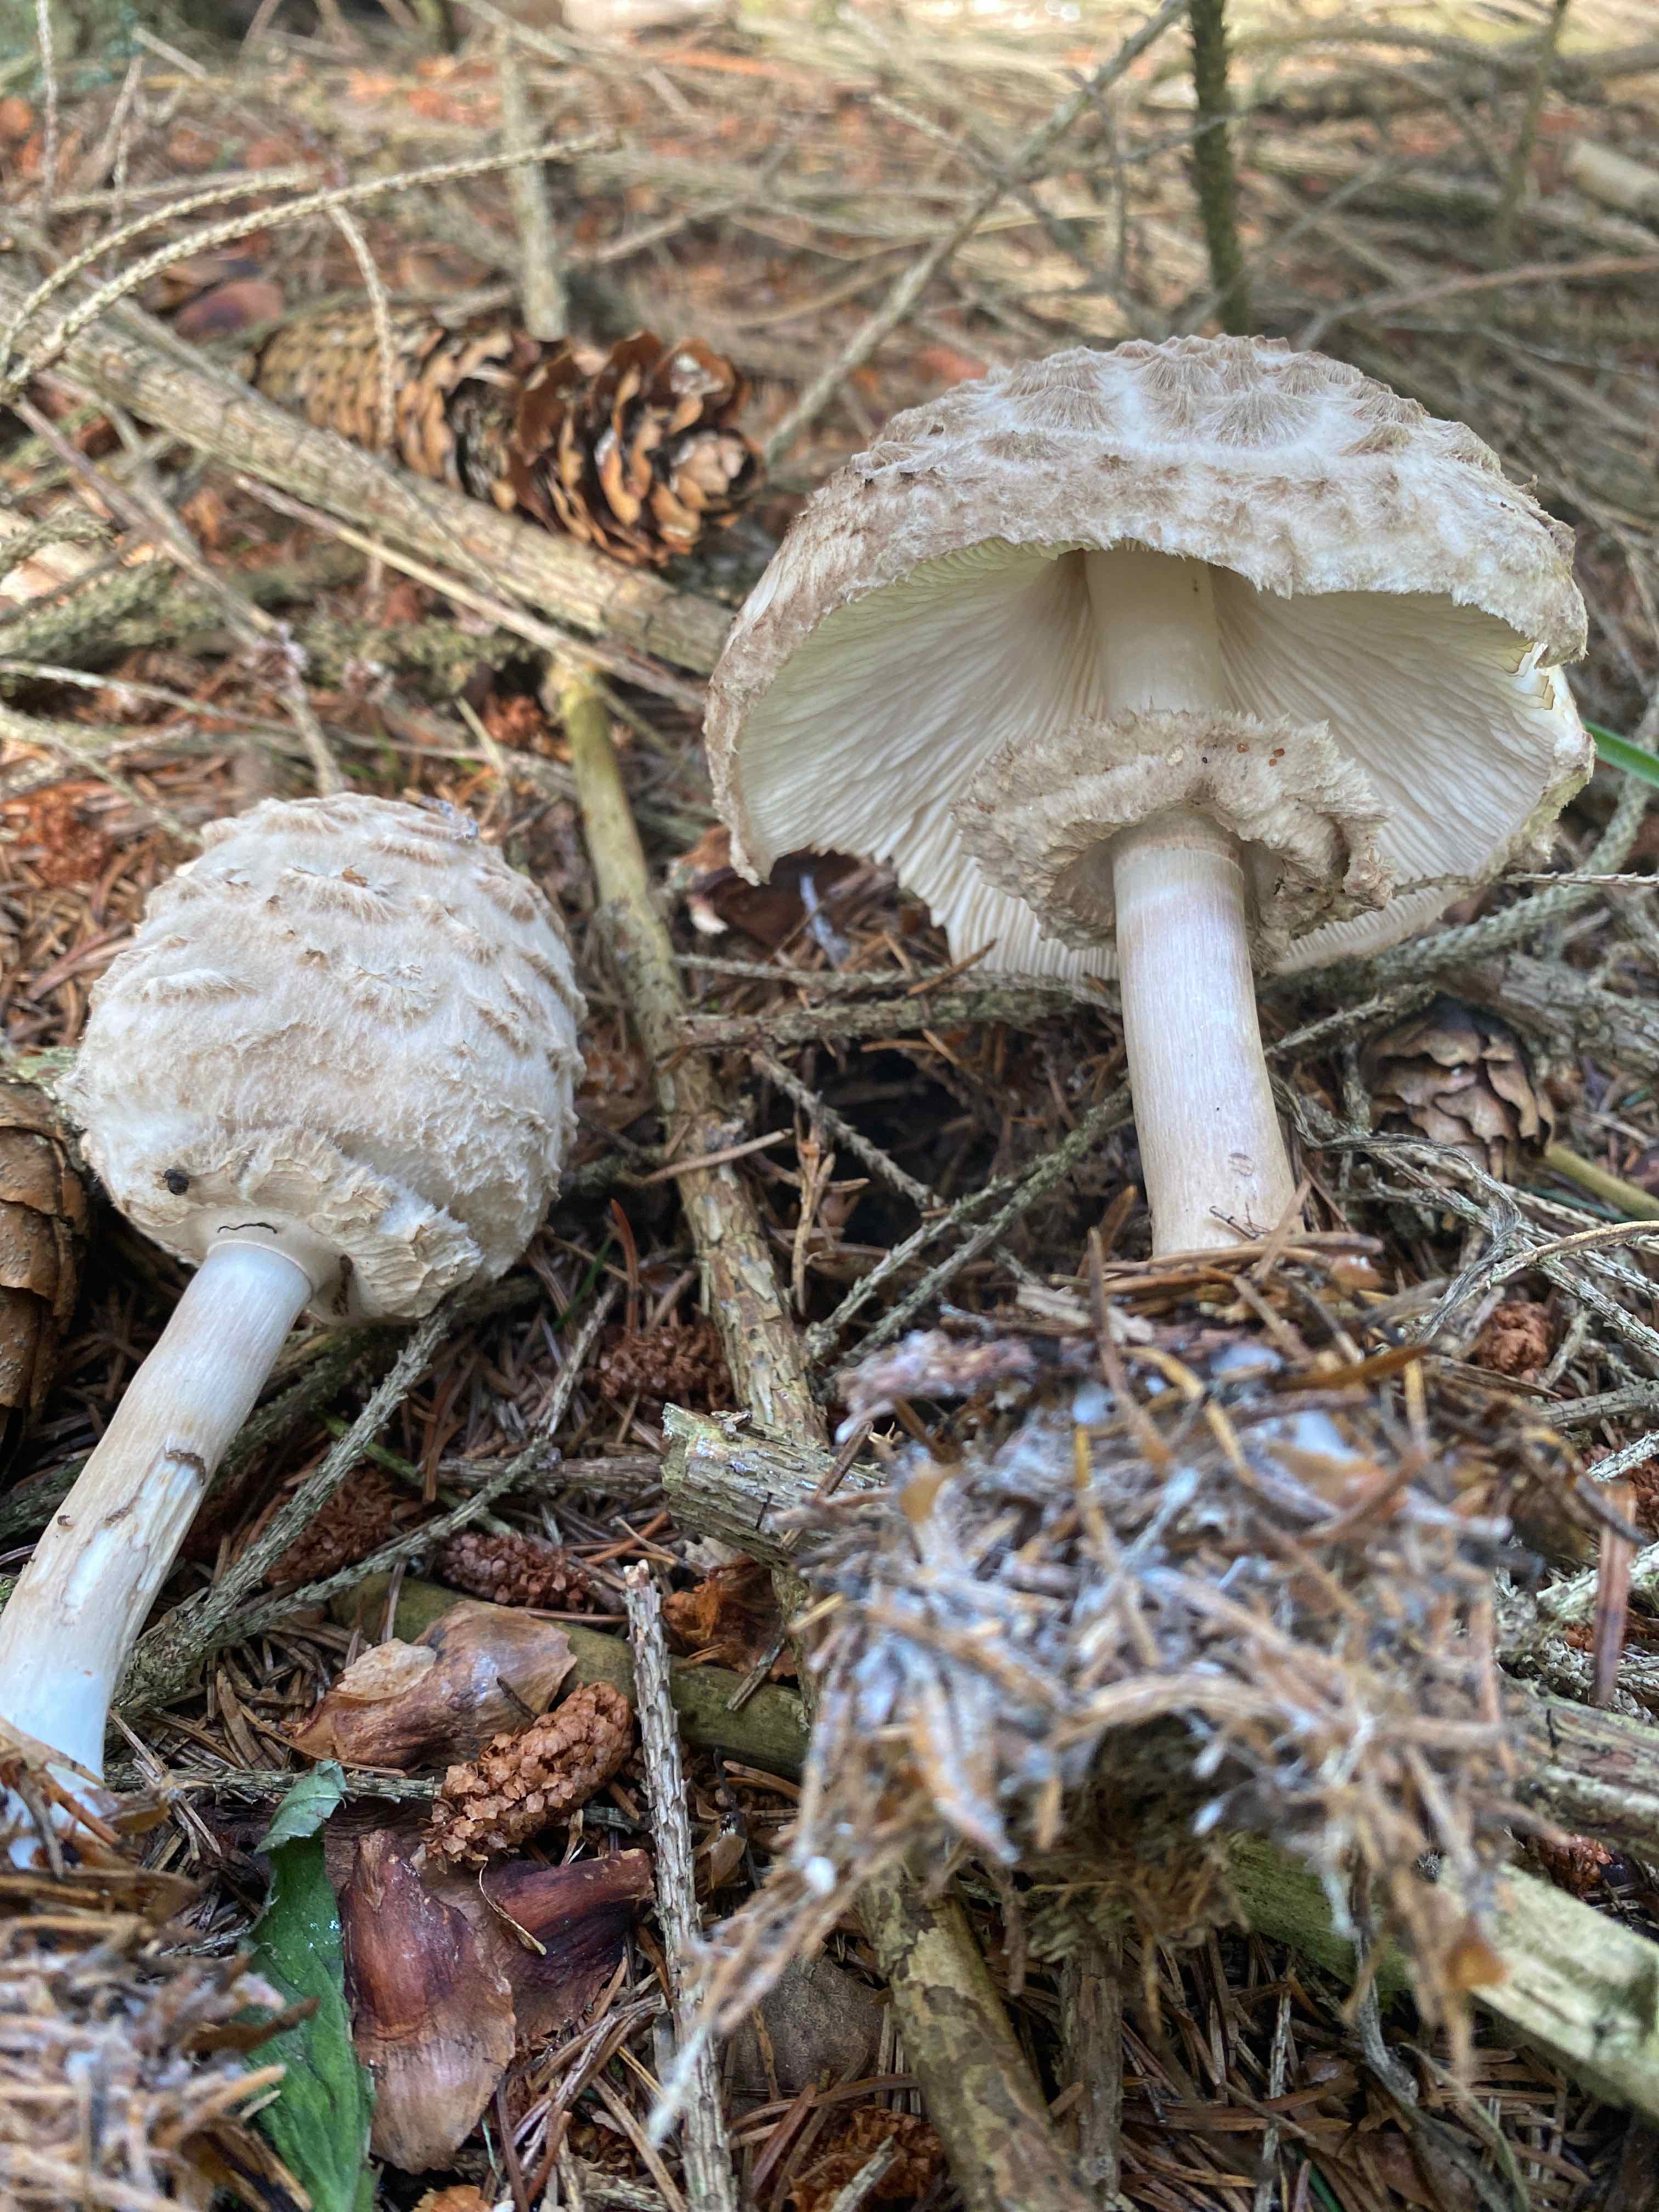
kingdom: Fungi
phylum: Basidiomycota
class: Agaricomycetes
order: Agaricales
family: Agaricaceae
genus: Chlorophyllum
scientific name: Chlorophyllum olivieri
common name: almindelig rabarberhat
